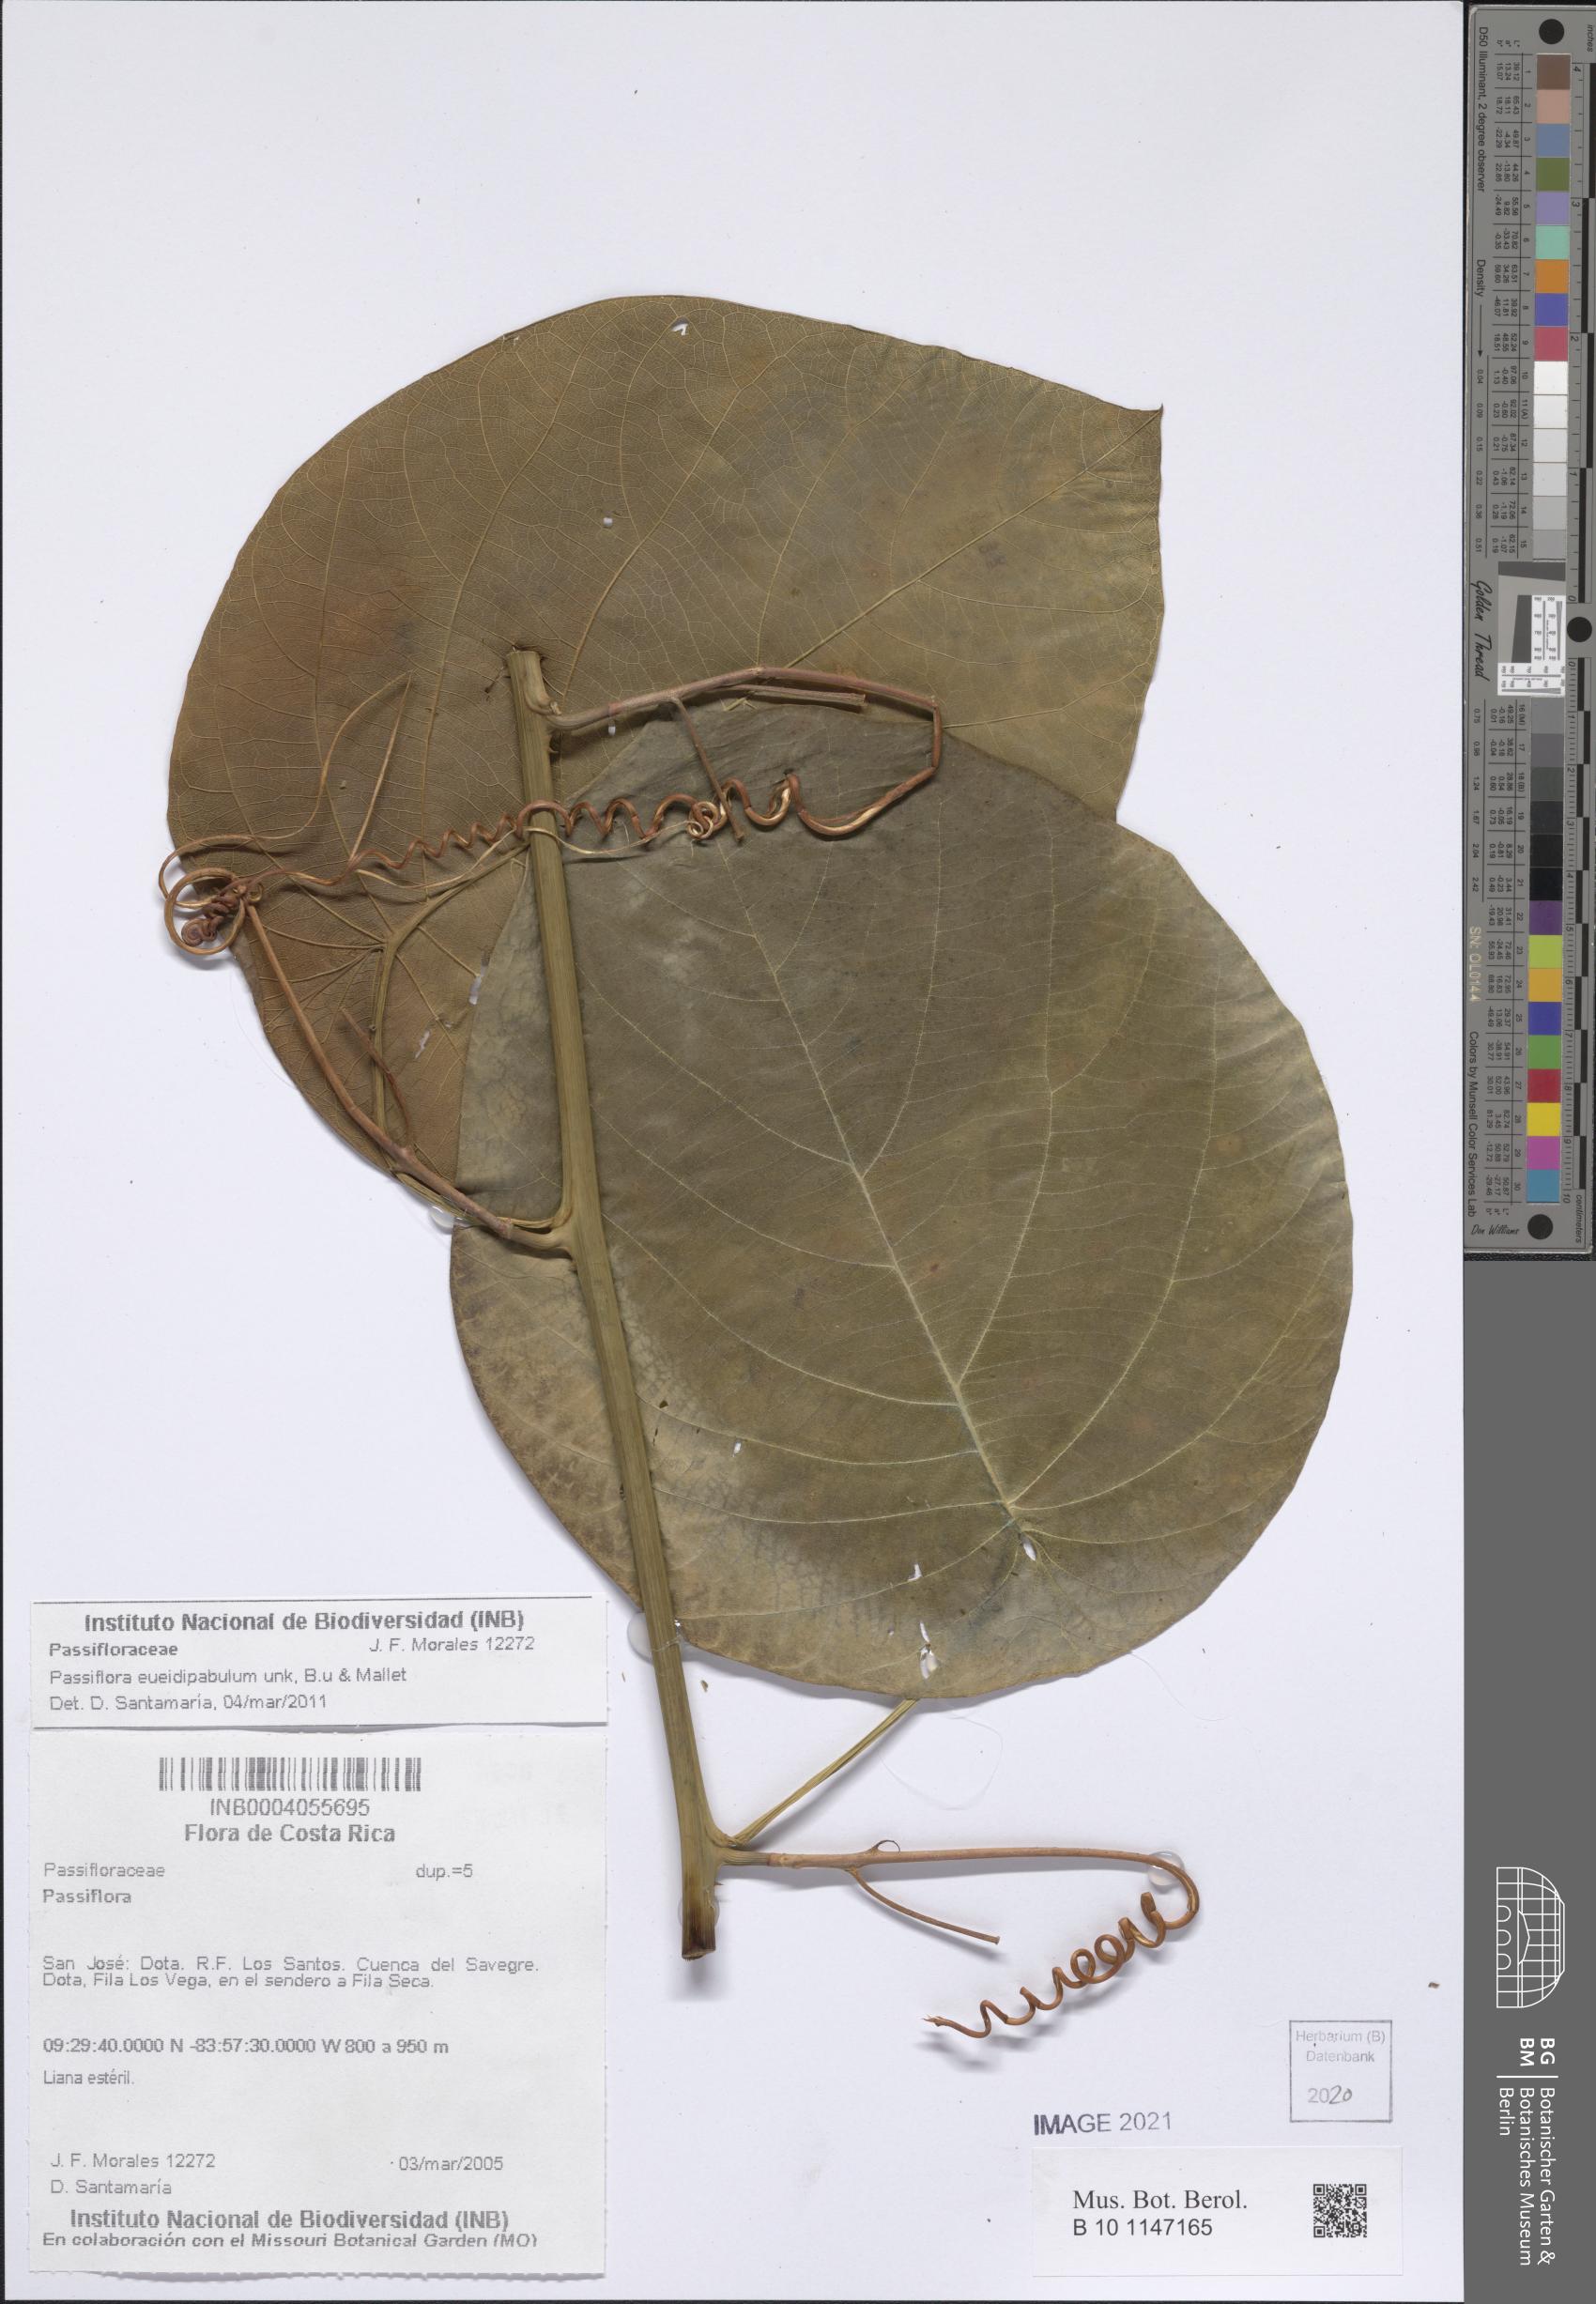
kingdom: Plantae
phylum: Tracheophyta
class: Magnoliopsida
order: Malpighiales
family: Passifloraceae
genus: Passiflora
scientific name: Passiflora eueidipabulum
